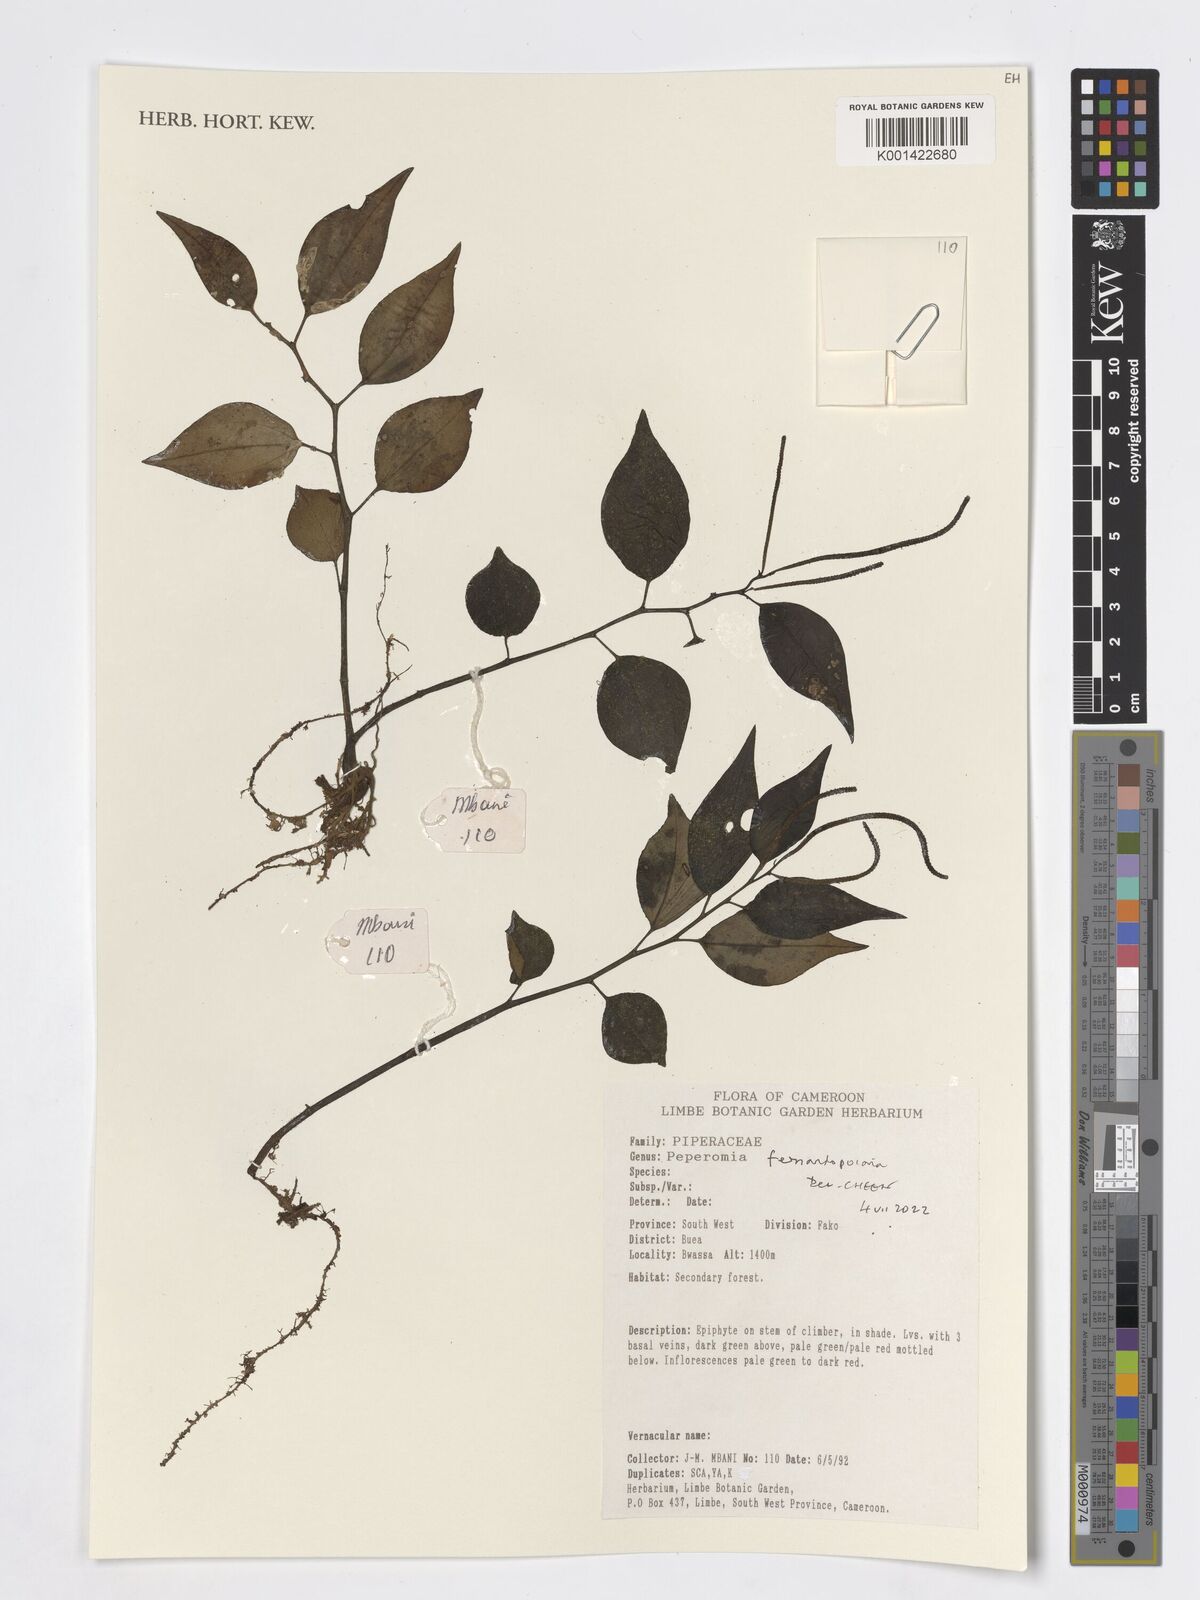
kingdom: Plantae
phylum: Tracheophyta
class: Magnoliopsida
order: Piperales
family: Piperaceae
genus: Peperomia
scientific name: Peperomia fernandopoiana
